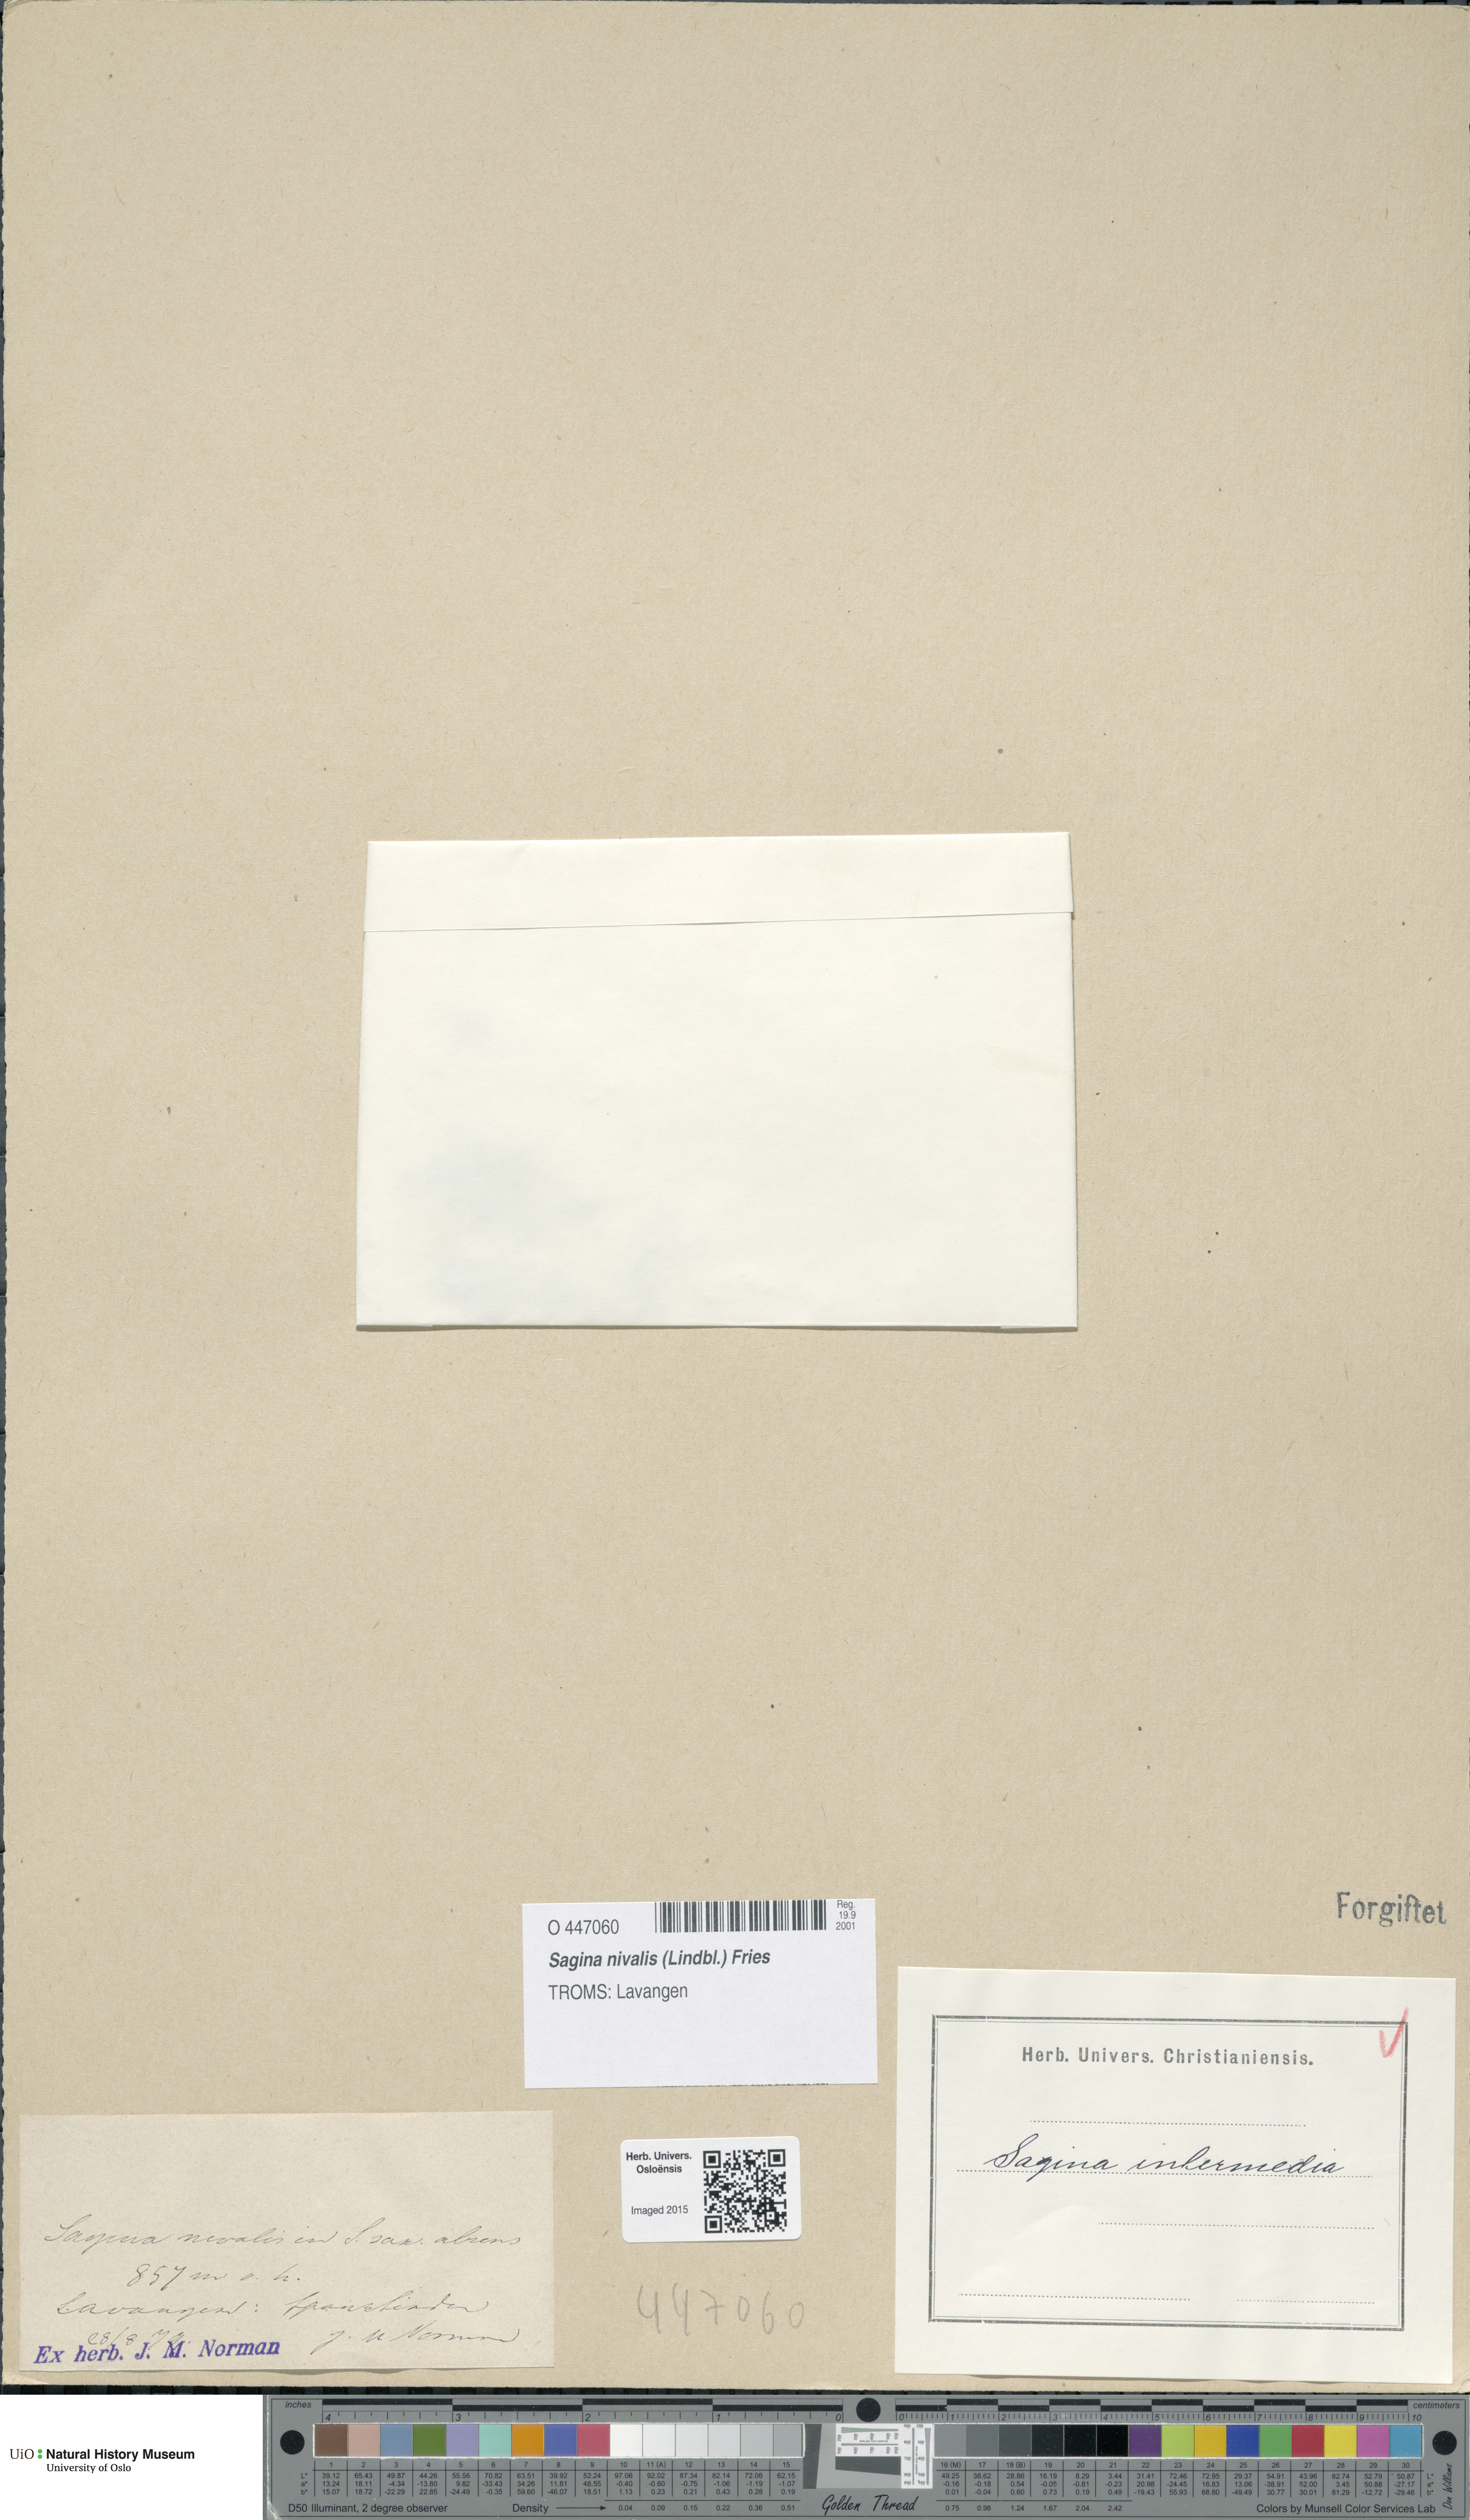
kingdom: Plantae
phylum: Tracheophyta
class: Magnoliopsida
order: Caryophyllales
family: Caryophyllaceae
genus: Sagina
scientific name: Sagina nivalis
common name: Snow pearlwort
